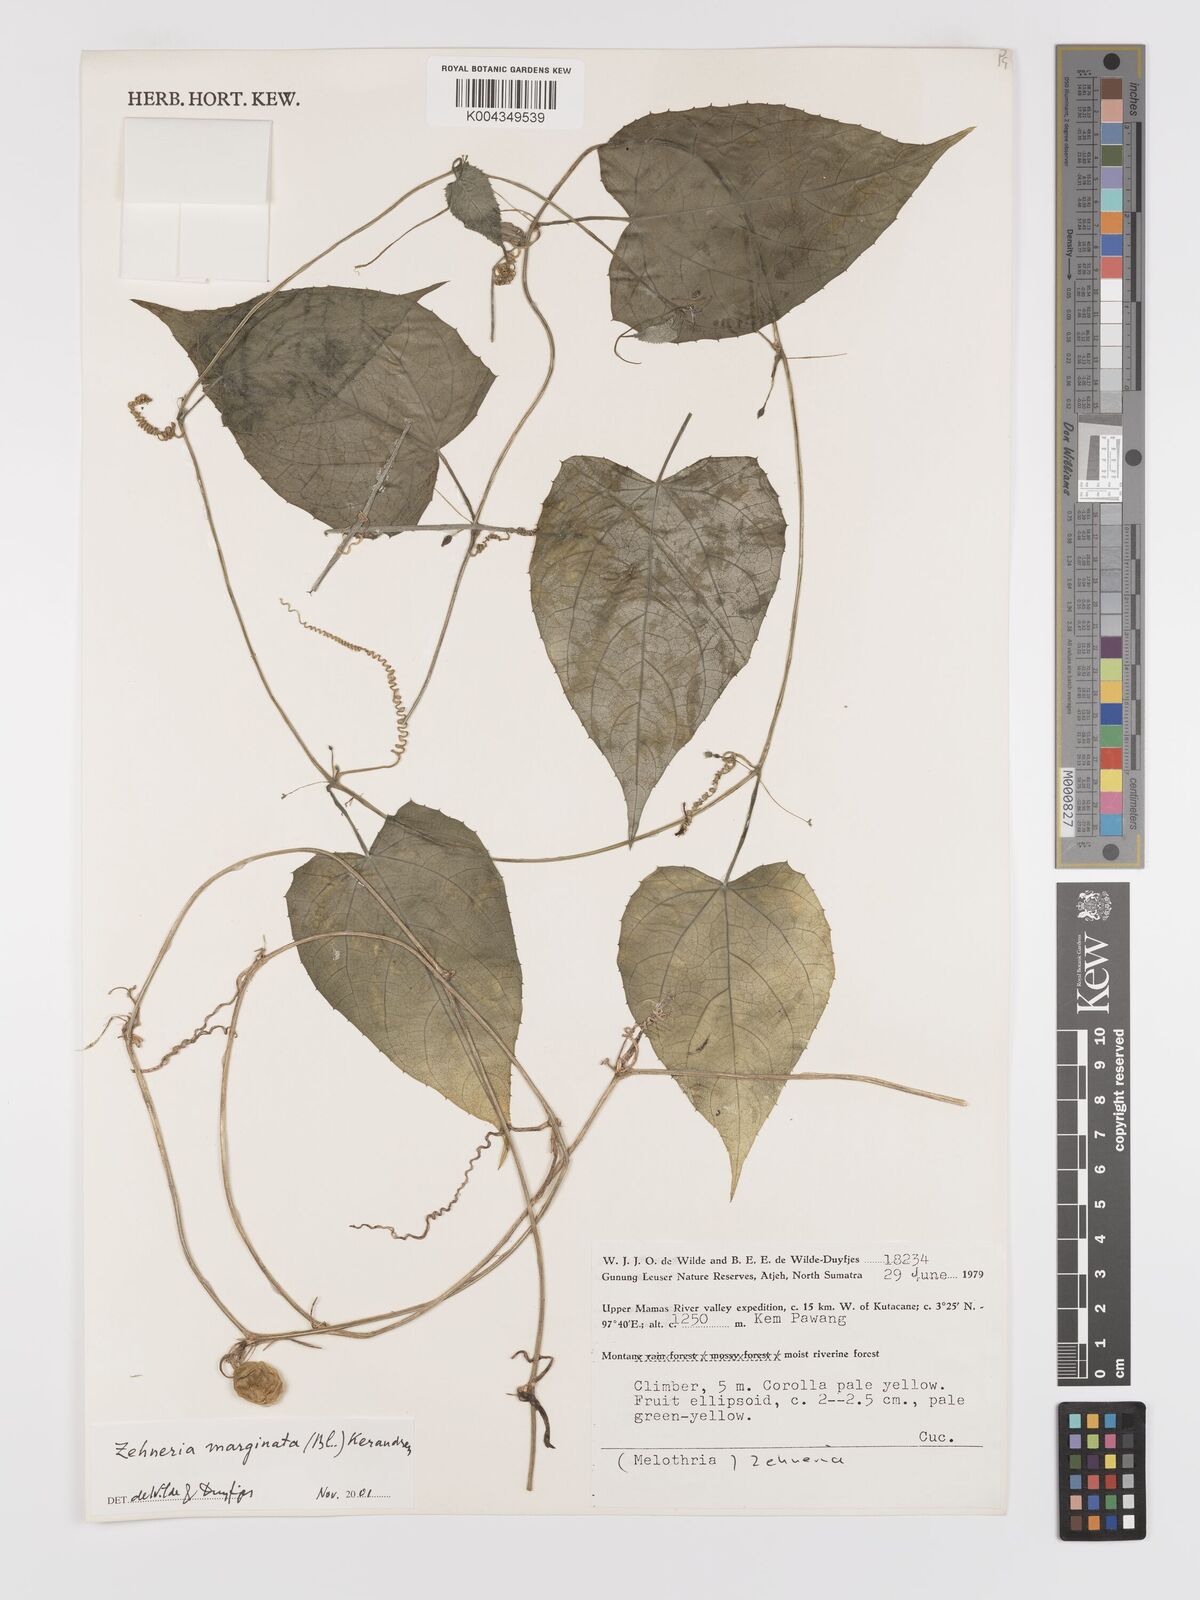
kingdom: Plantae
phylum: Tracheophyta
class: Magnoliopsida
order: Cucurbitales
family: Cucurbitaceae
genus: Scopellaria
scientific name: Scopellaria marginata
